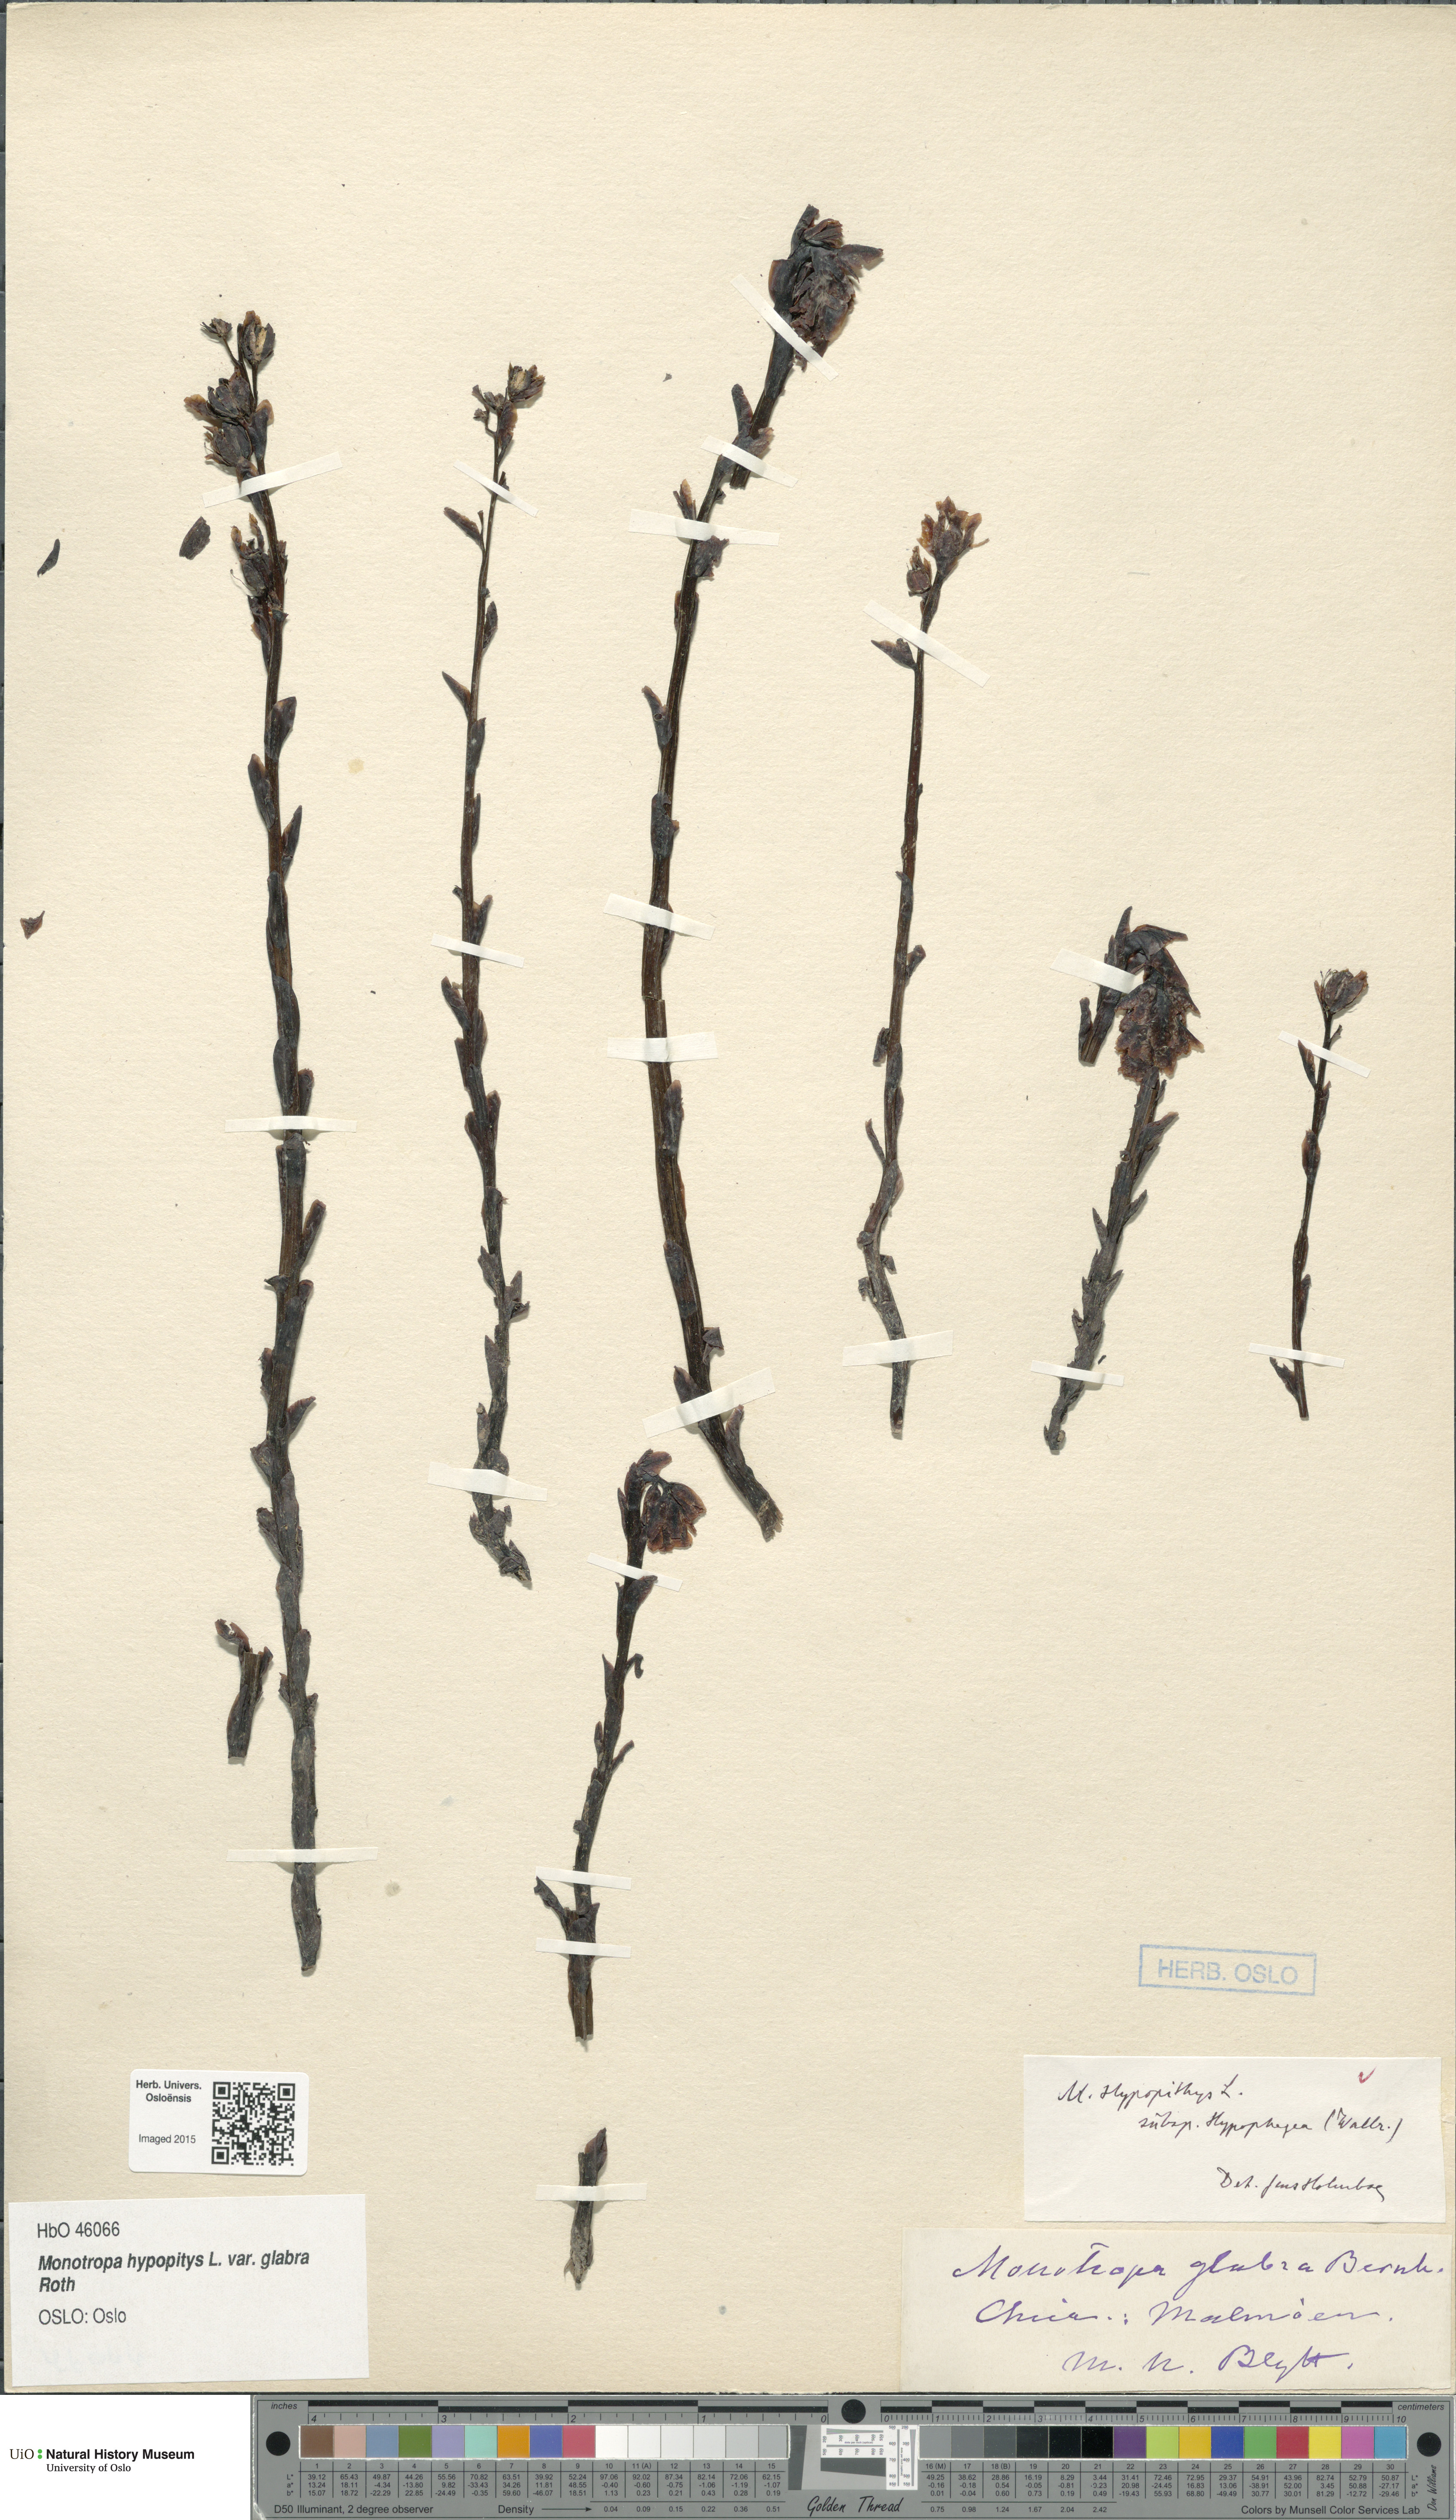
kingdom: Plantae
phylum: Tracheophyta
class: Magnoliopsida
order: Ericales
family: Ericaceae
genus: Hypopitys
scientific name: Hypopitys hypophegea
